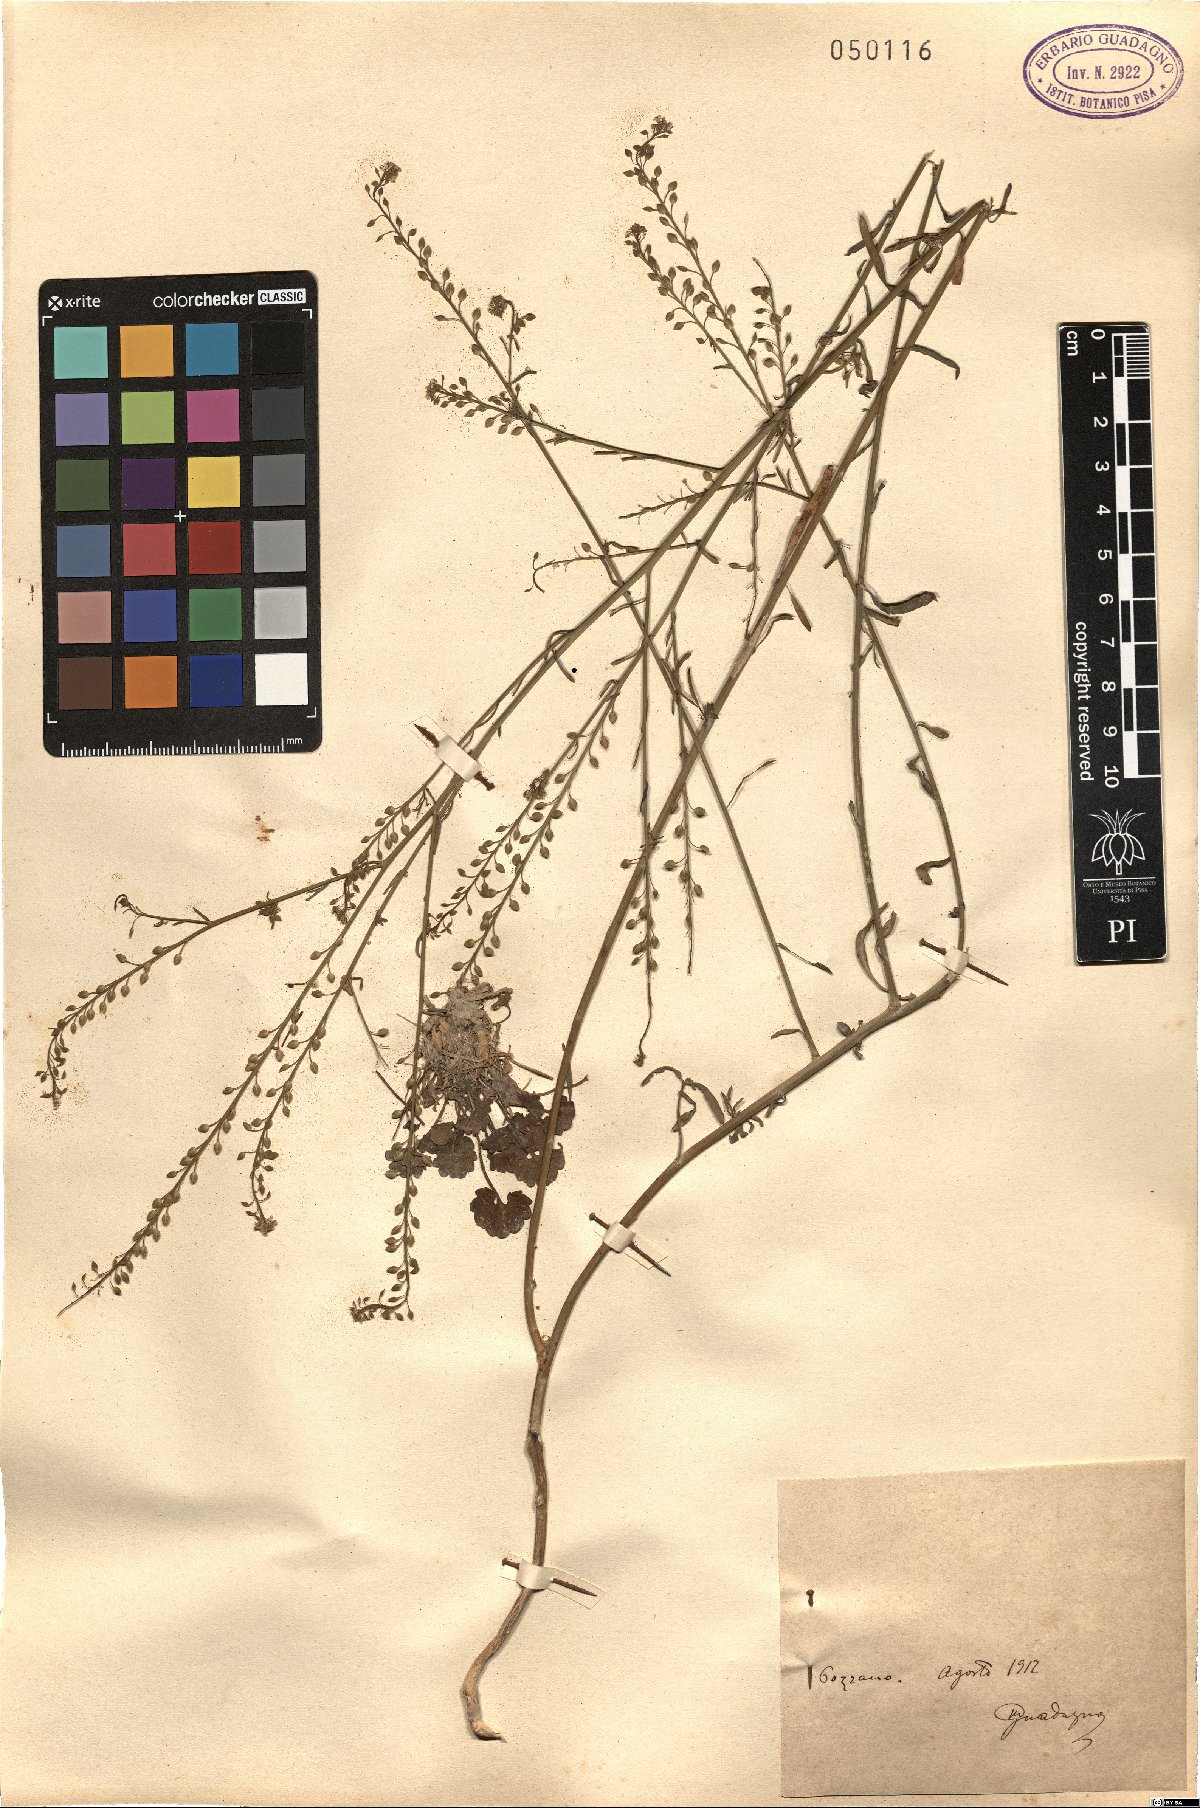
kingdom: Plantae
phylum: Tracheophyta
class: Magnoliopsida
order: Brassicales
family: Brassicaceae
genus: Lepidium
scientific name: Lepidium
